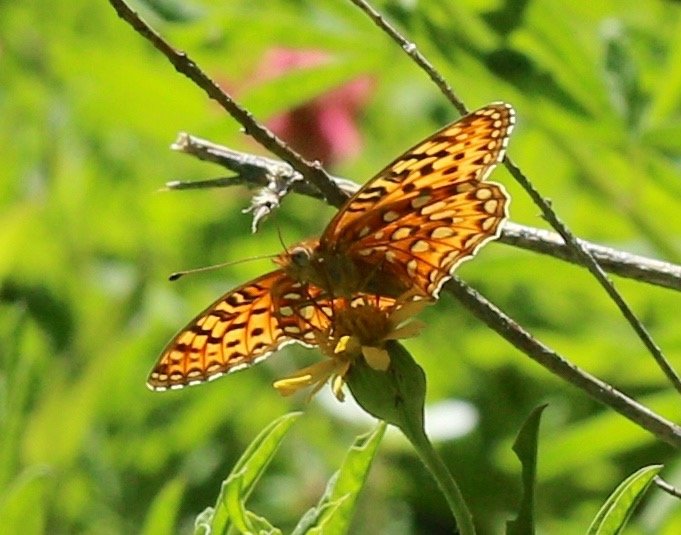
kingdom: Animalia
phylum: Arthropoda
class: Insecta
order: Lepidoptera
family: Nymphalidae
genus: Speyeria
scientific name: Speyeria hydaspe
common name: Hydaspe Fritillary
